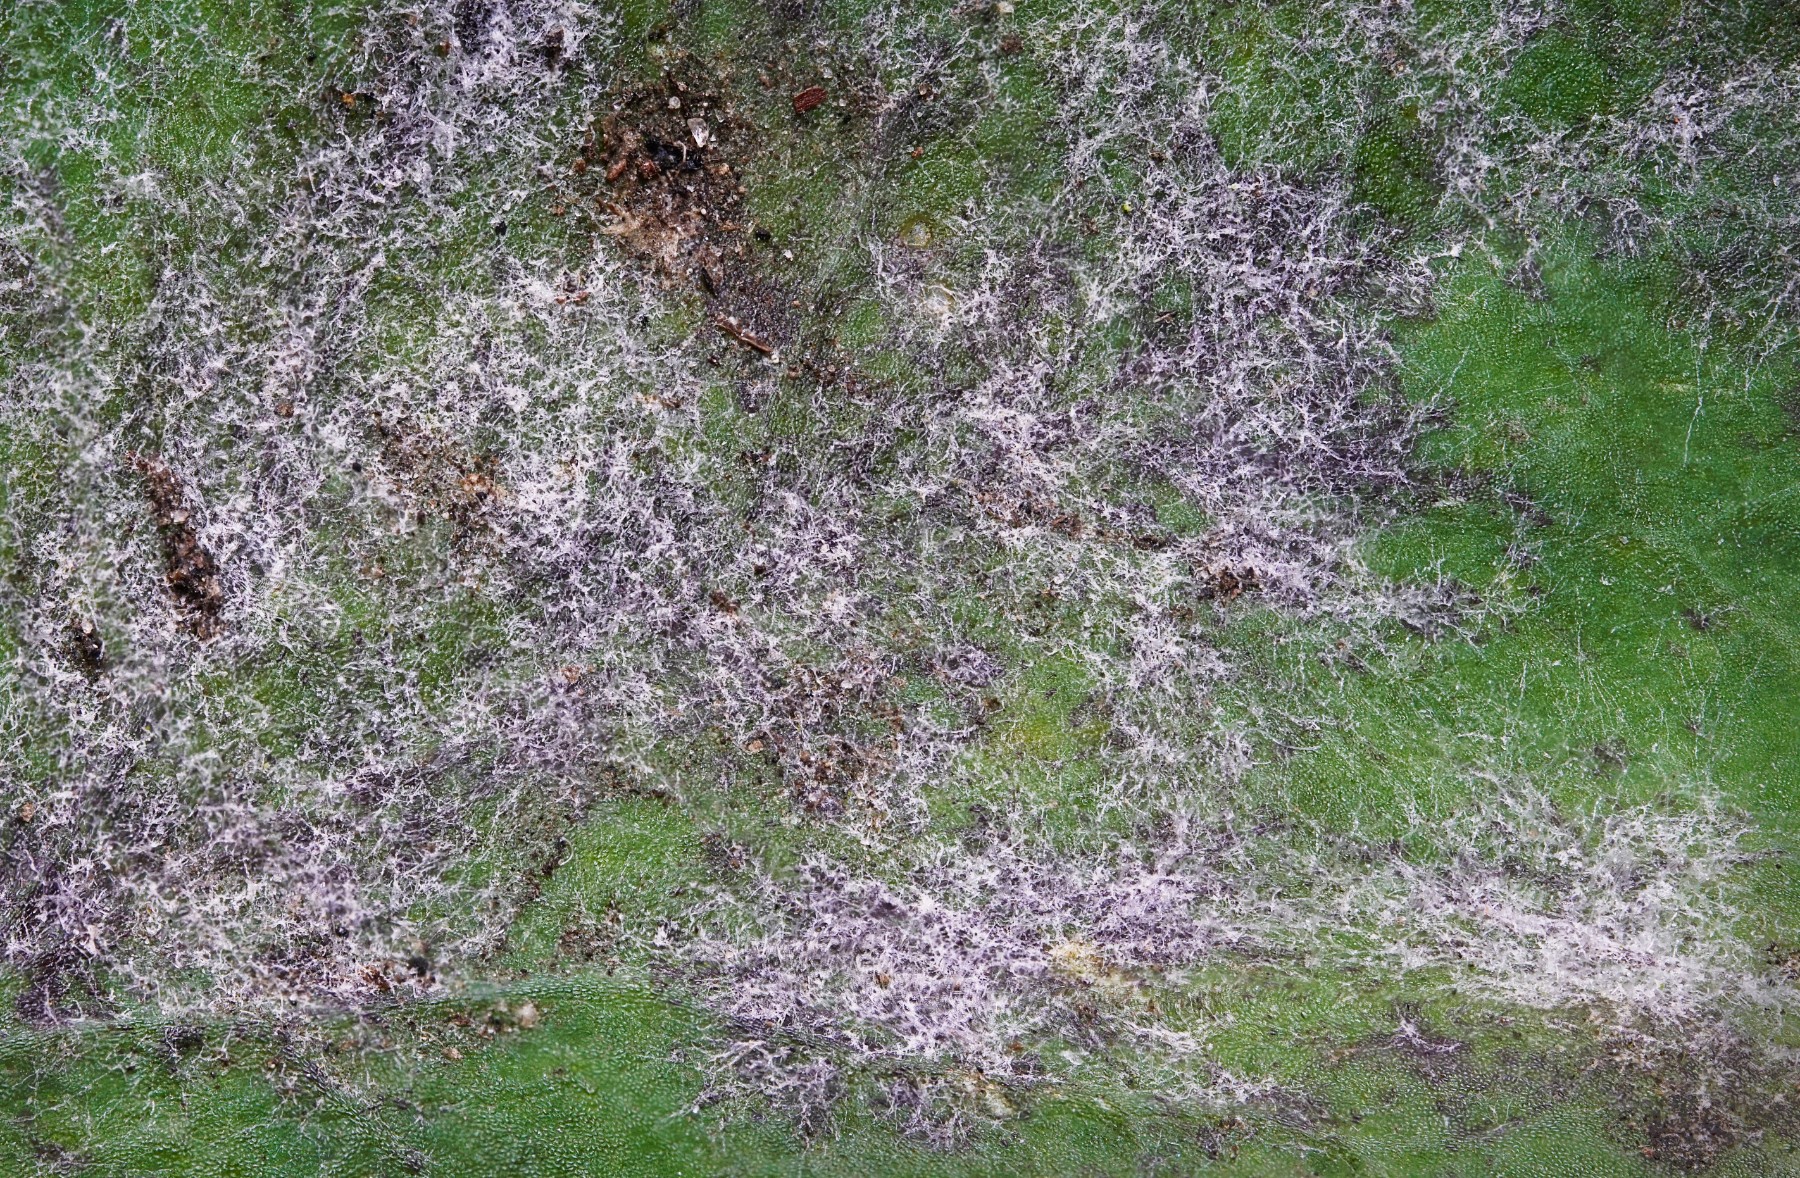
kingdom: Fungi
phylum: Ascomycota
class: Leotiomycetes
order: Helotiales
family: Erysiphaceae
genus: Podosphaera
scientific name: Podosphaera euphorbiae
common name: Eurasian poinsettia powdery mildew
